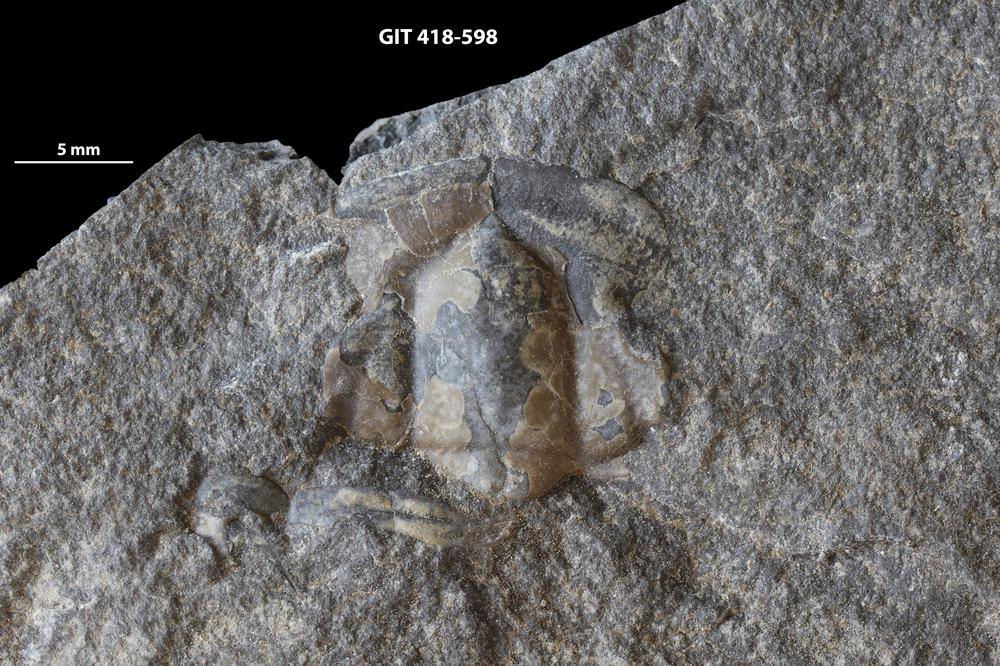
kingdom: Animalia
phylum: Arthropoda
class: Trilobita
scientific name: Trilobita
